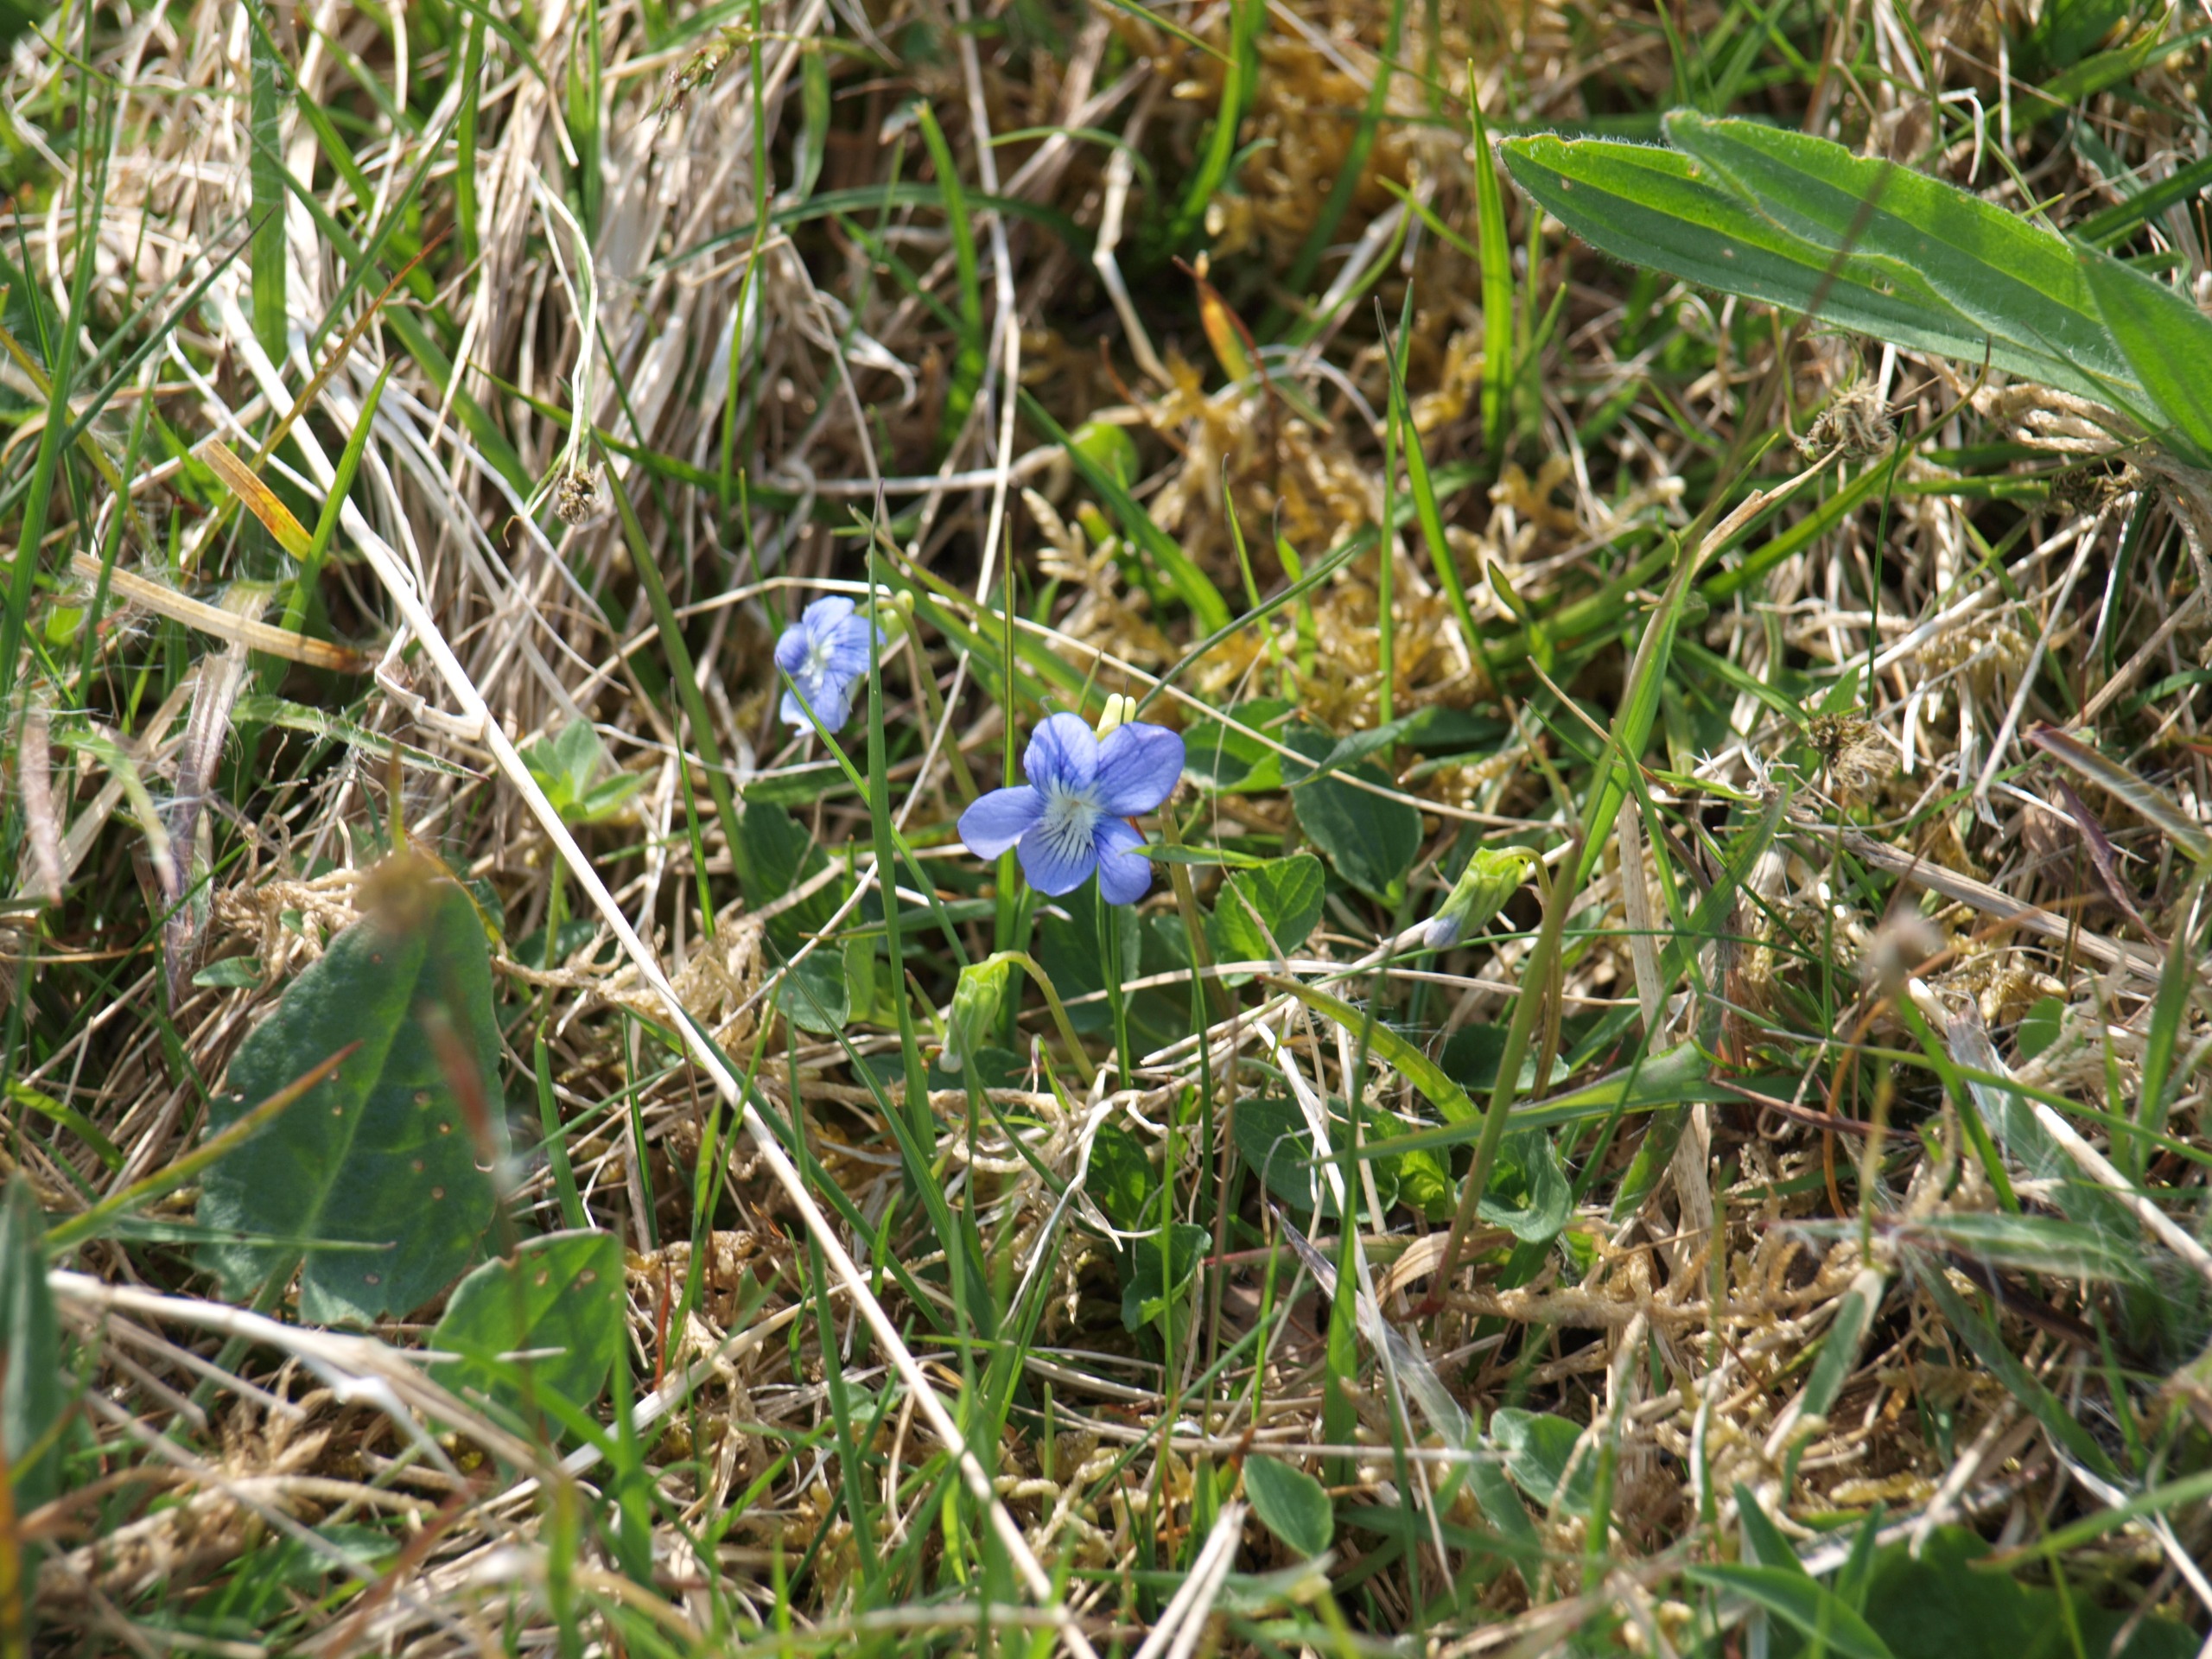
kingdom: Plantae
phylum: Tracheophyta
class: Magnoliopsida
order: Malpighiales
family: Violaceae
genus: Viola
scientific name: Viola canina
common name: Hunde-viol
